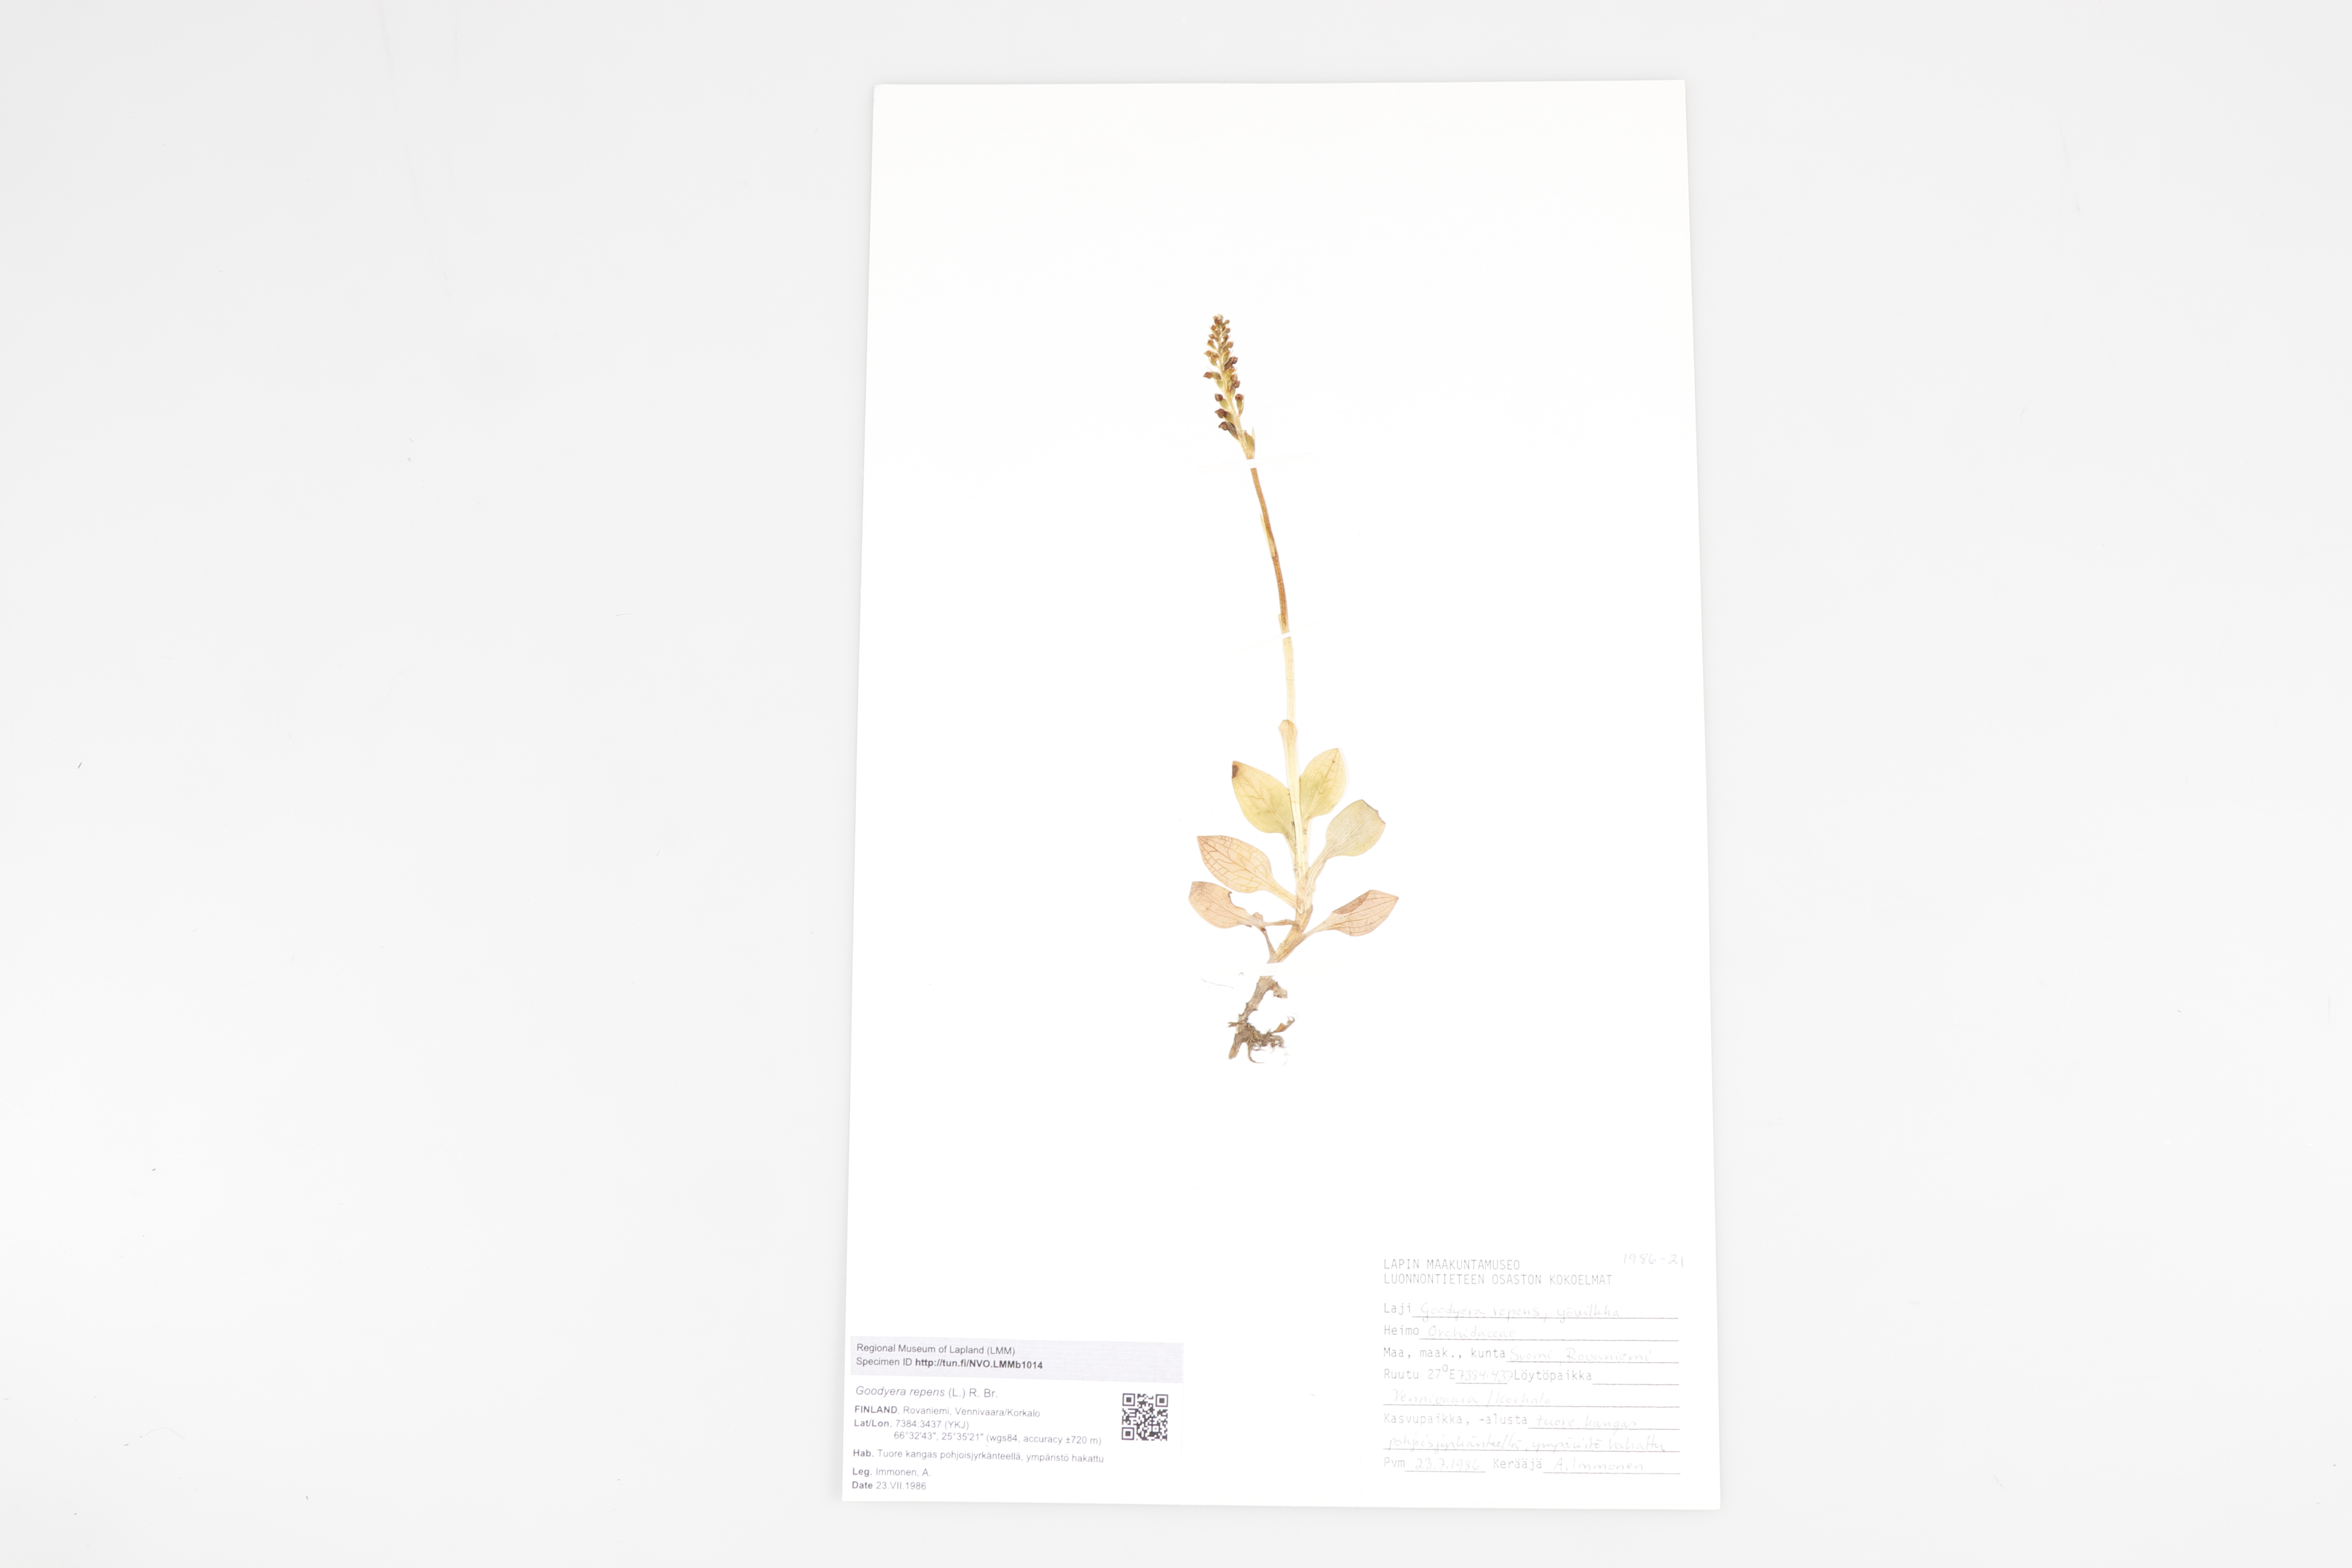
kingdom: Plantae
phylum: Tracheophyta
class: Liliopsida
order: Asparagales
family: Orchidaceae
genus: Goodyera
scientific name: Goodyera repens
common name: Creeping lady's-tresses
